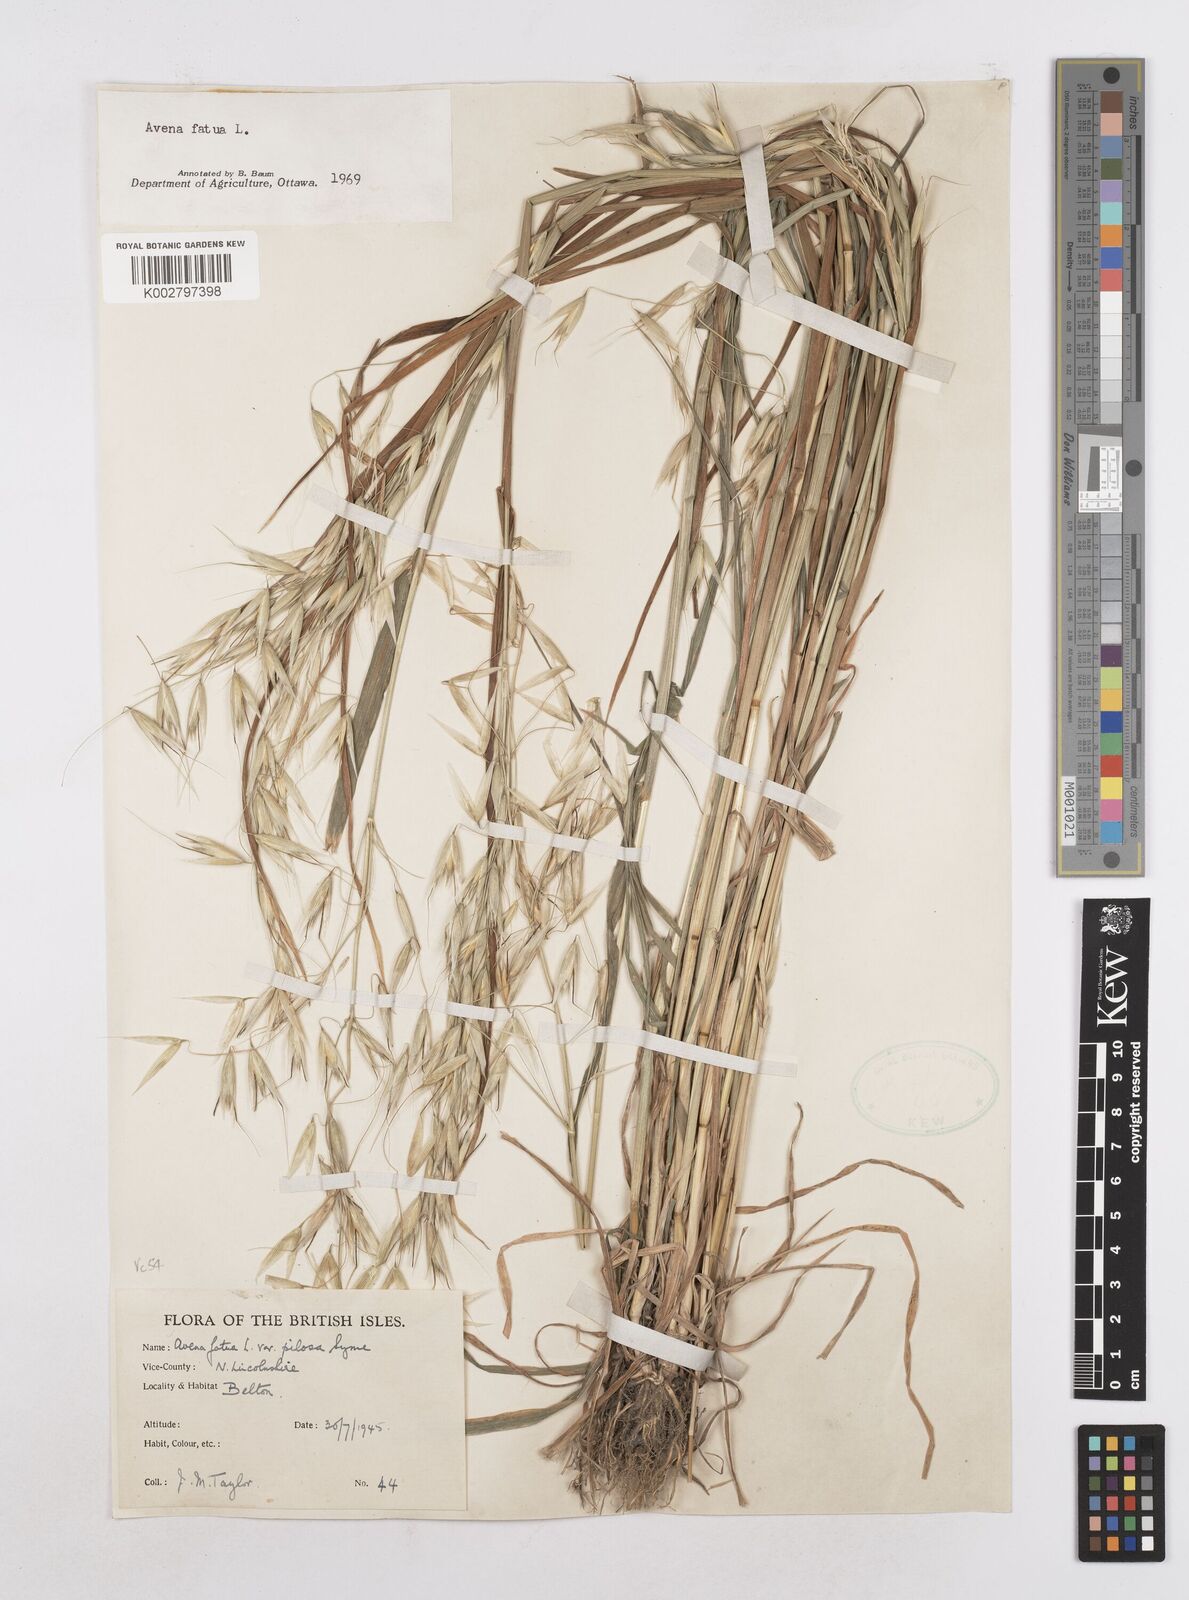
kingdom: Plantae
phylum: Tracheophyta
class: Liliopsida
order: Poales
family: Poaceae
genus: Avena
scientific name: Avena fatua
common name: Wild oat
